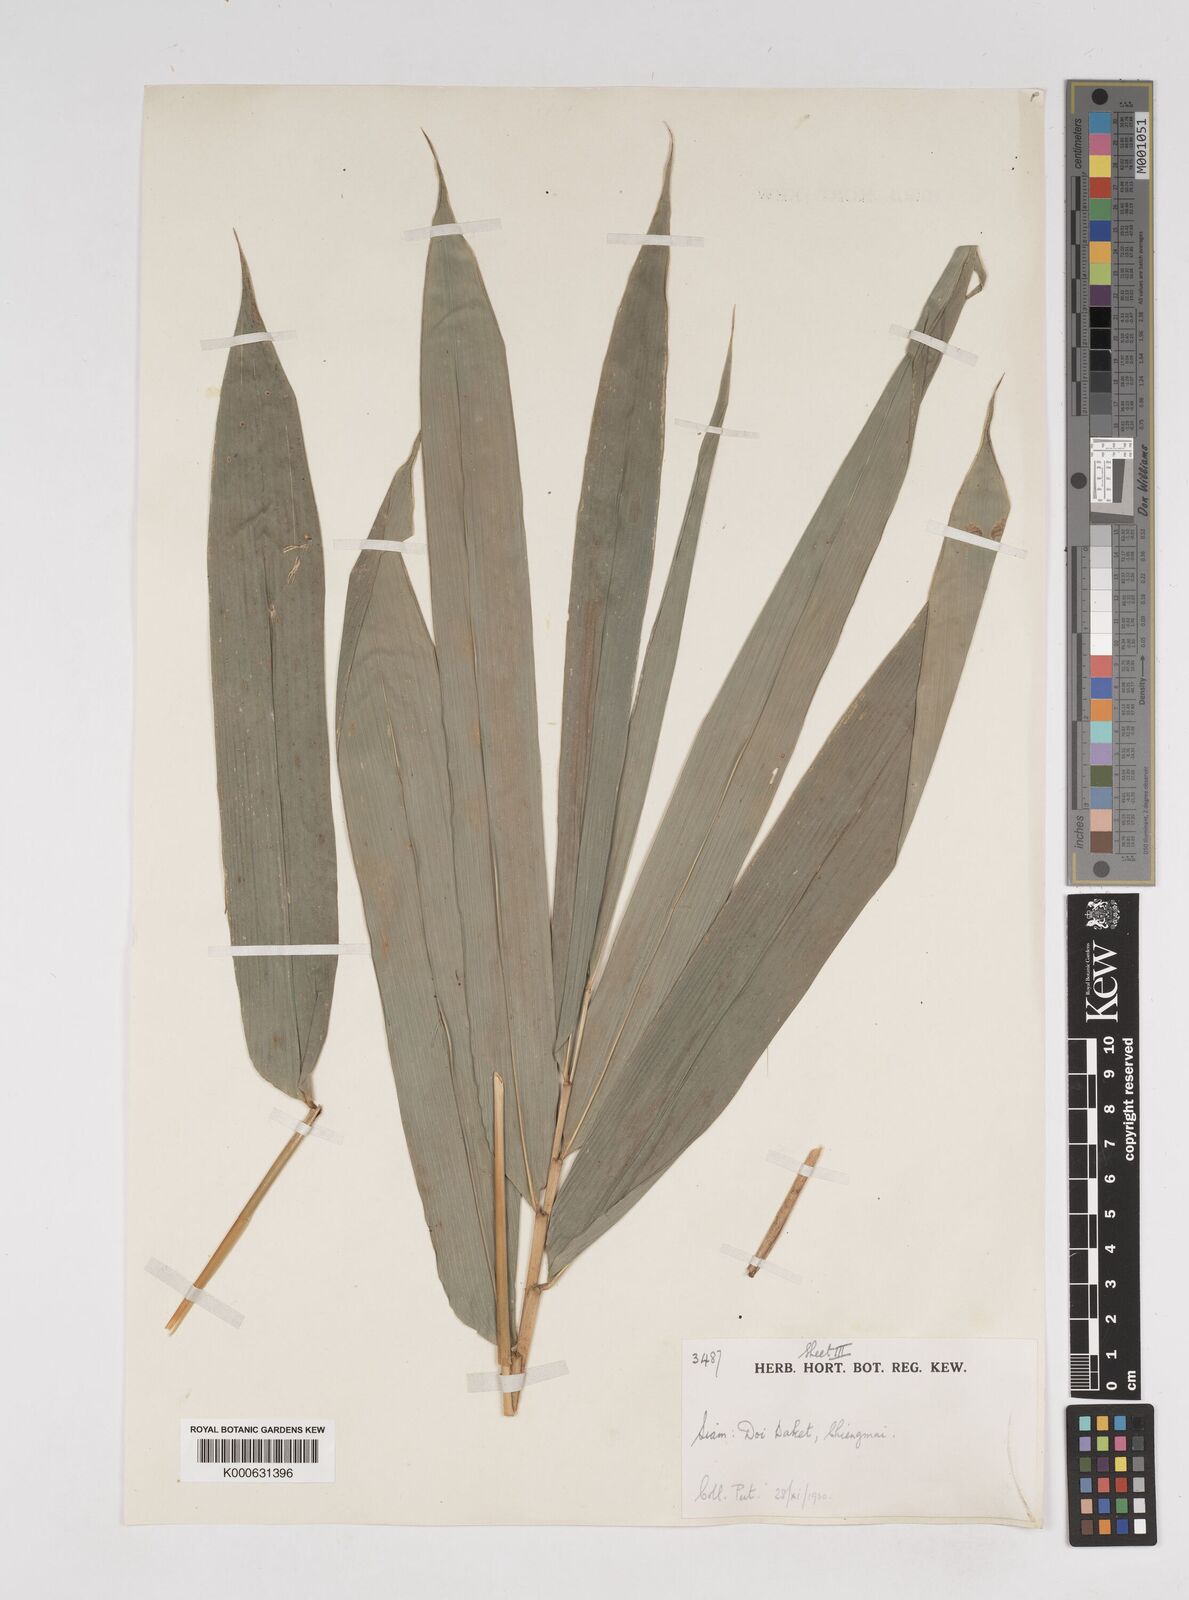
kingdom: Plantae
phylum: Tracheophyta
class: Liliopsida
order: Poales
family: Poaceae
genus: Dendrocalamus
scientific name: Dendrocalamus
